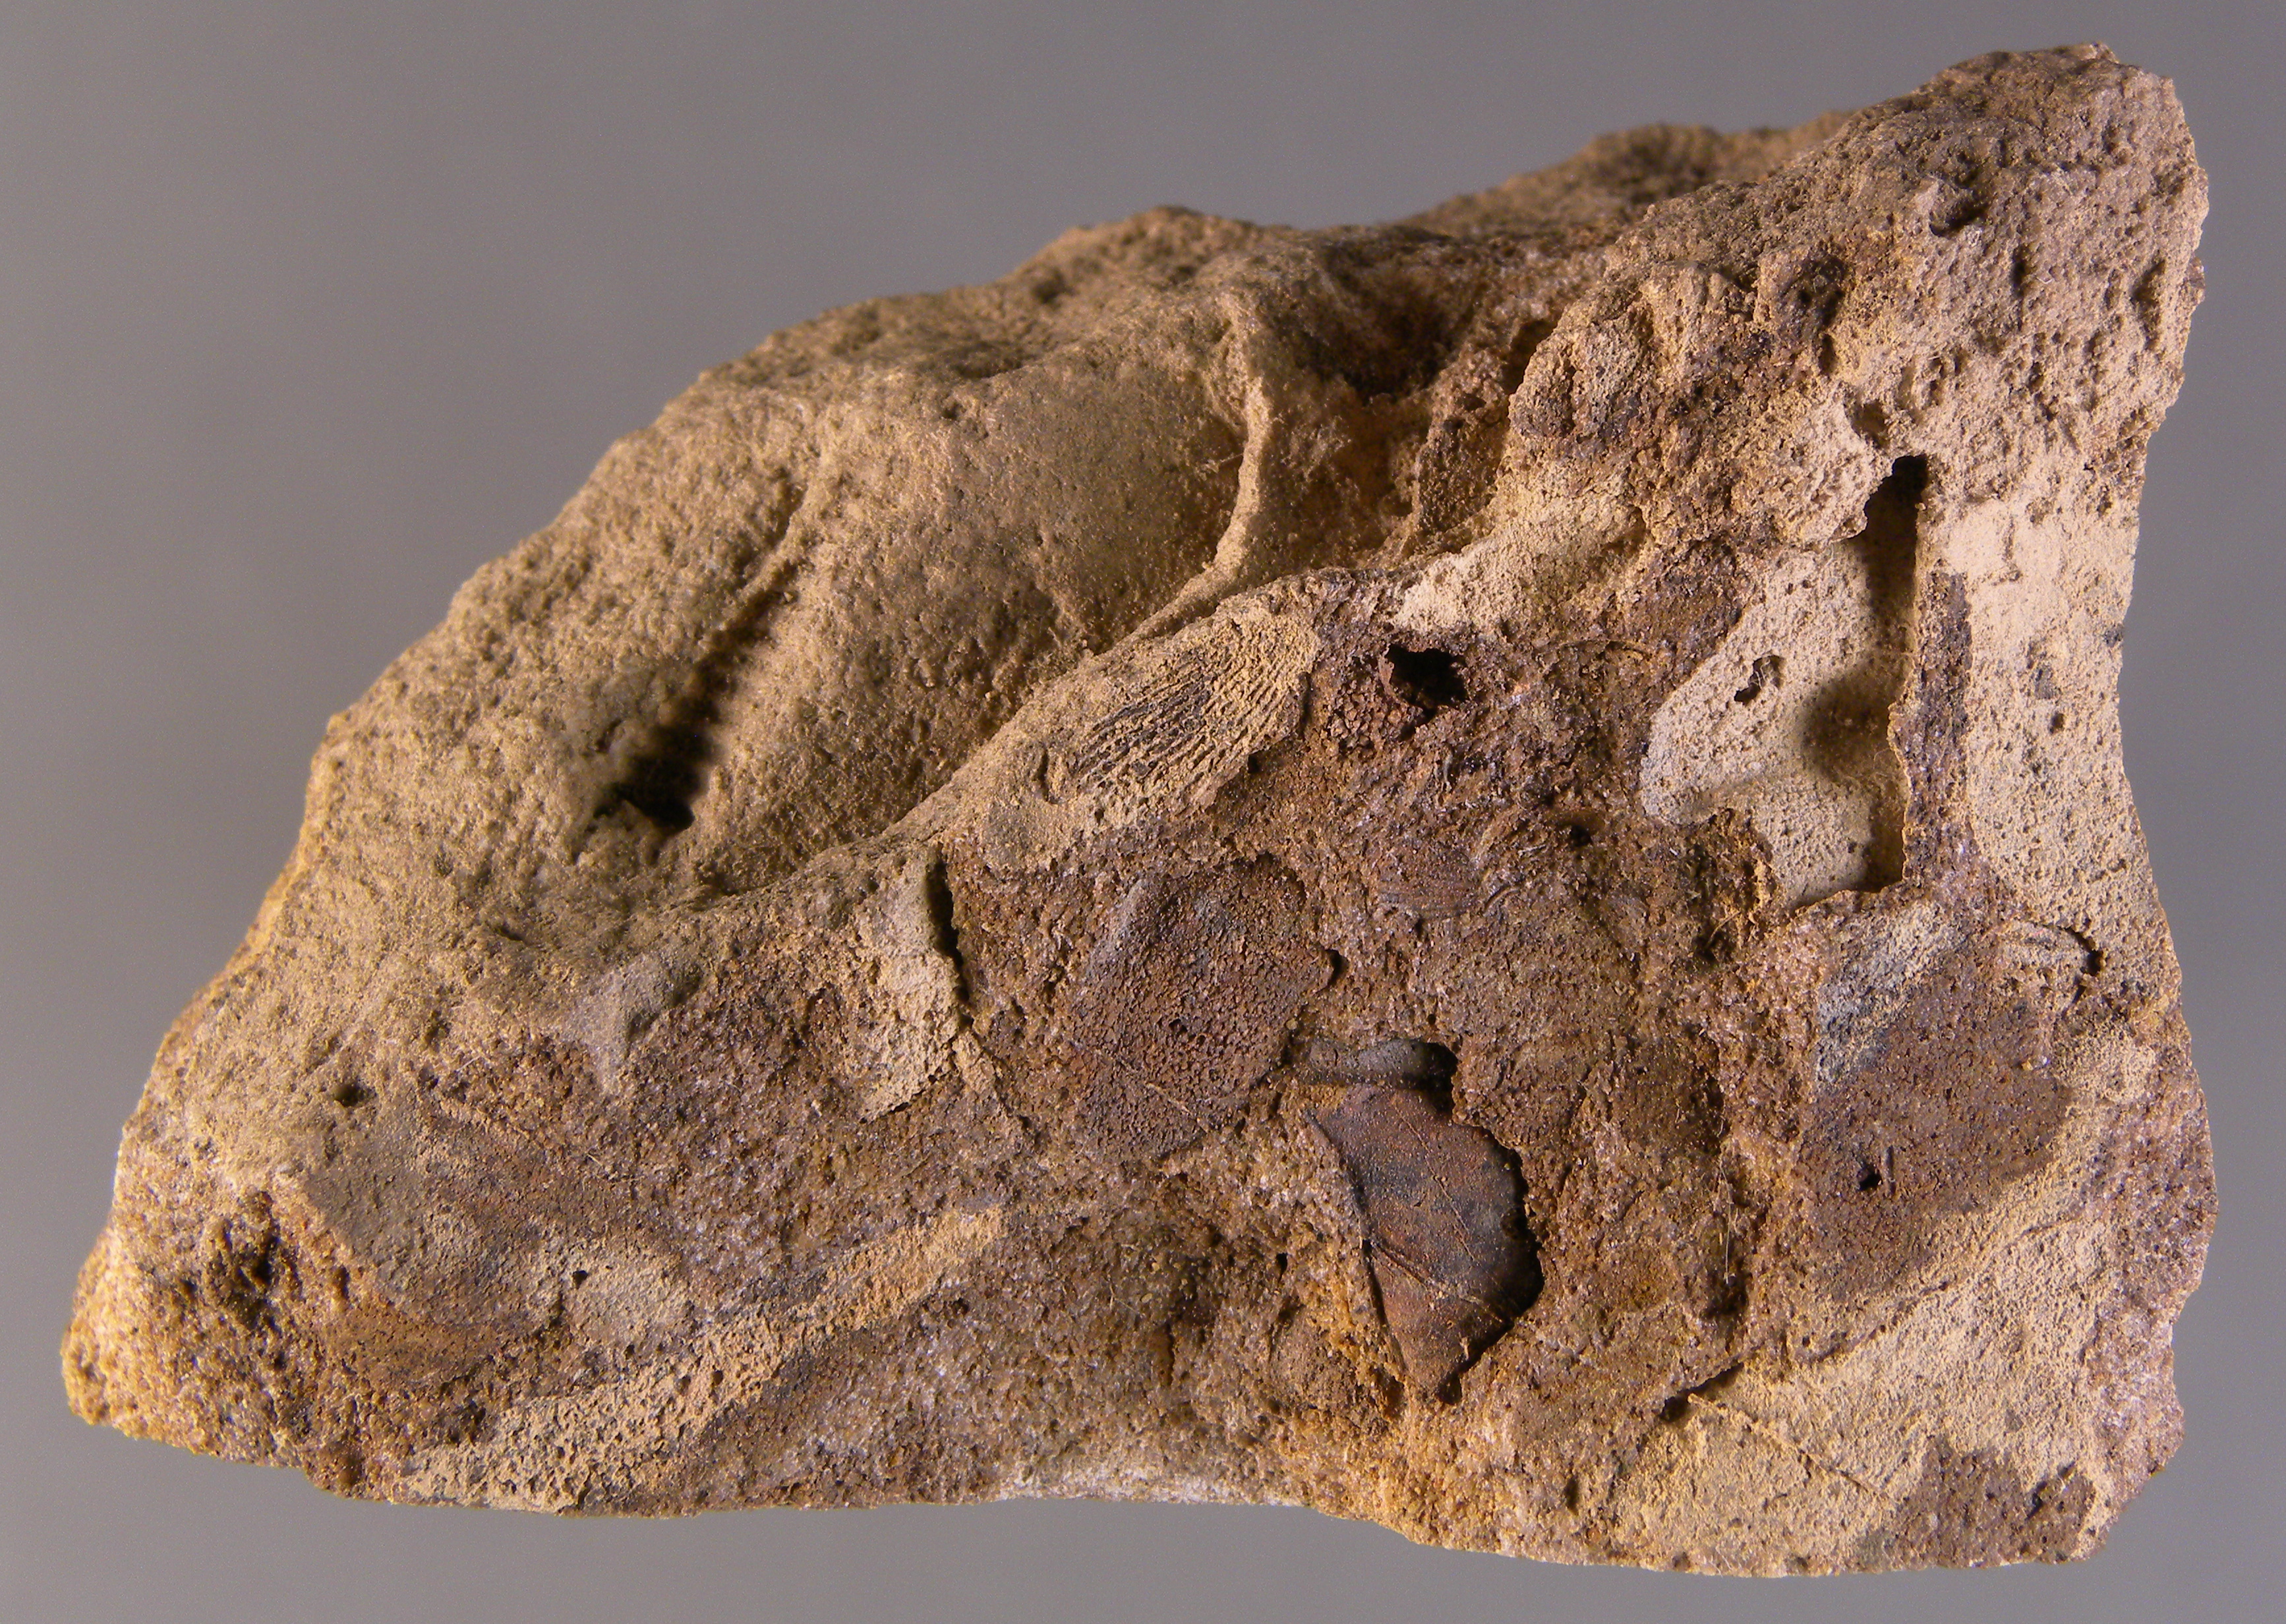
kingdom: Animalia
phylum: Mollusca
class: Cricoconarida
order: Tentaculitida
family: Tentaculitidae
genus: Tentaculites
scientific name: Tentaculites
